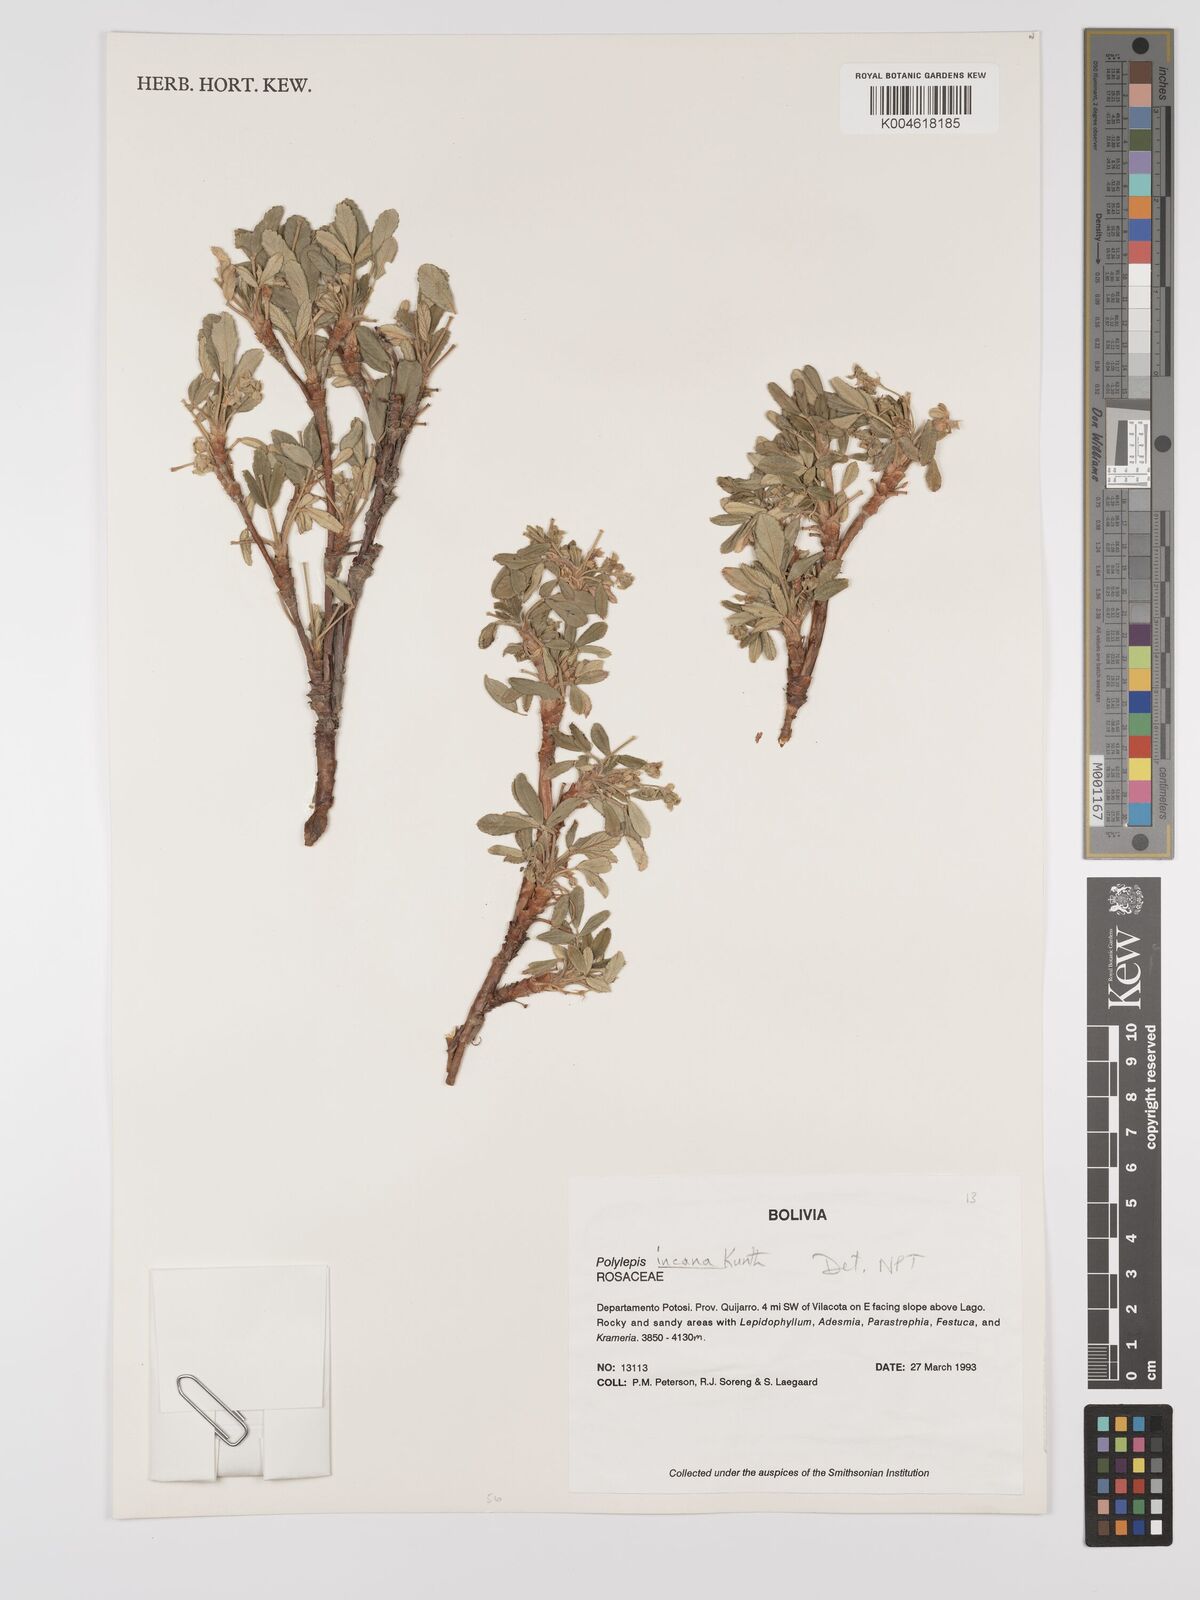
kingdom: Plantae
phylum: Tracheophyta
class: Magnoliopsida
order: Rosales
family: Rosaceae
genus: Polylepis
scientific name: Polylepis incana
